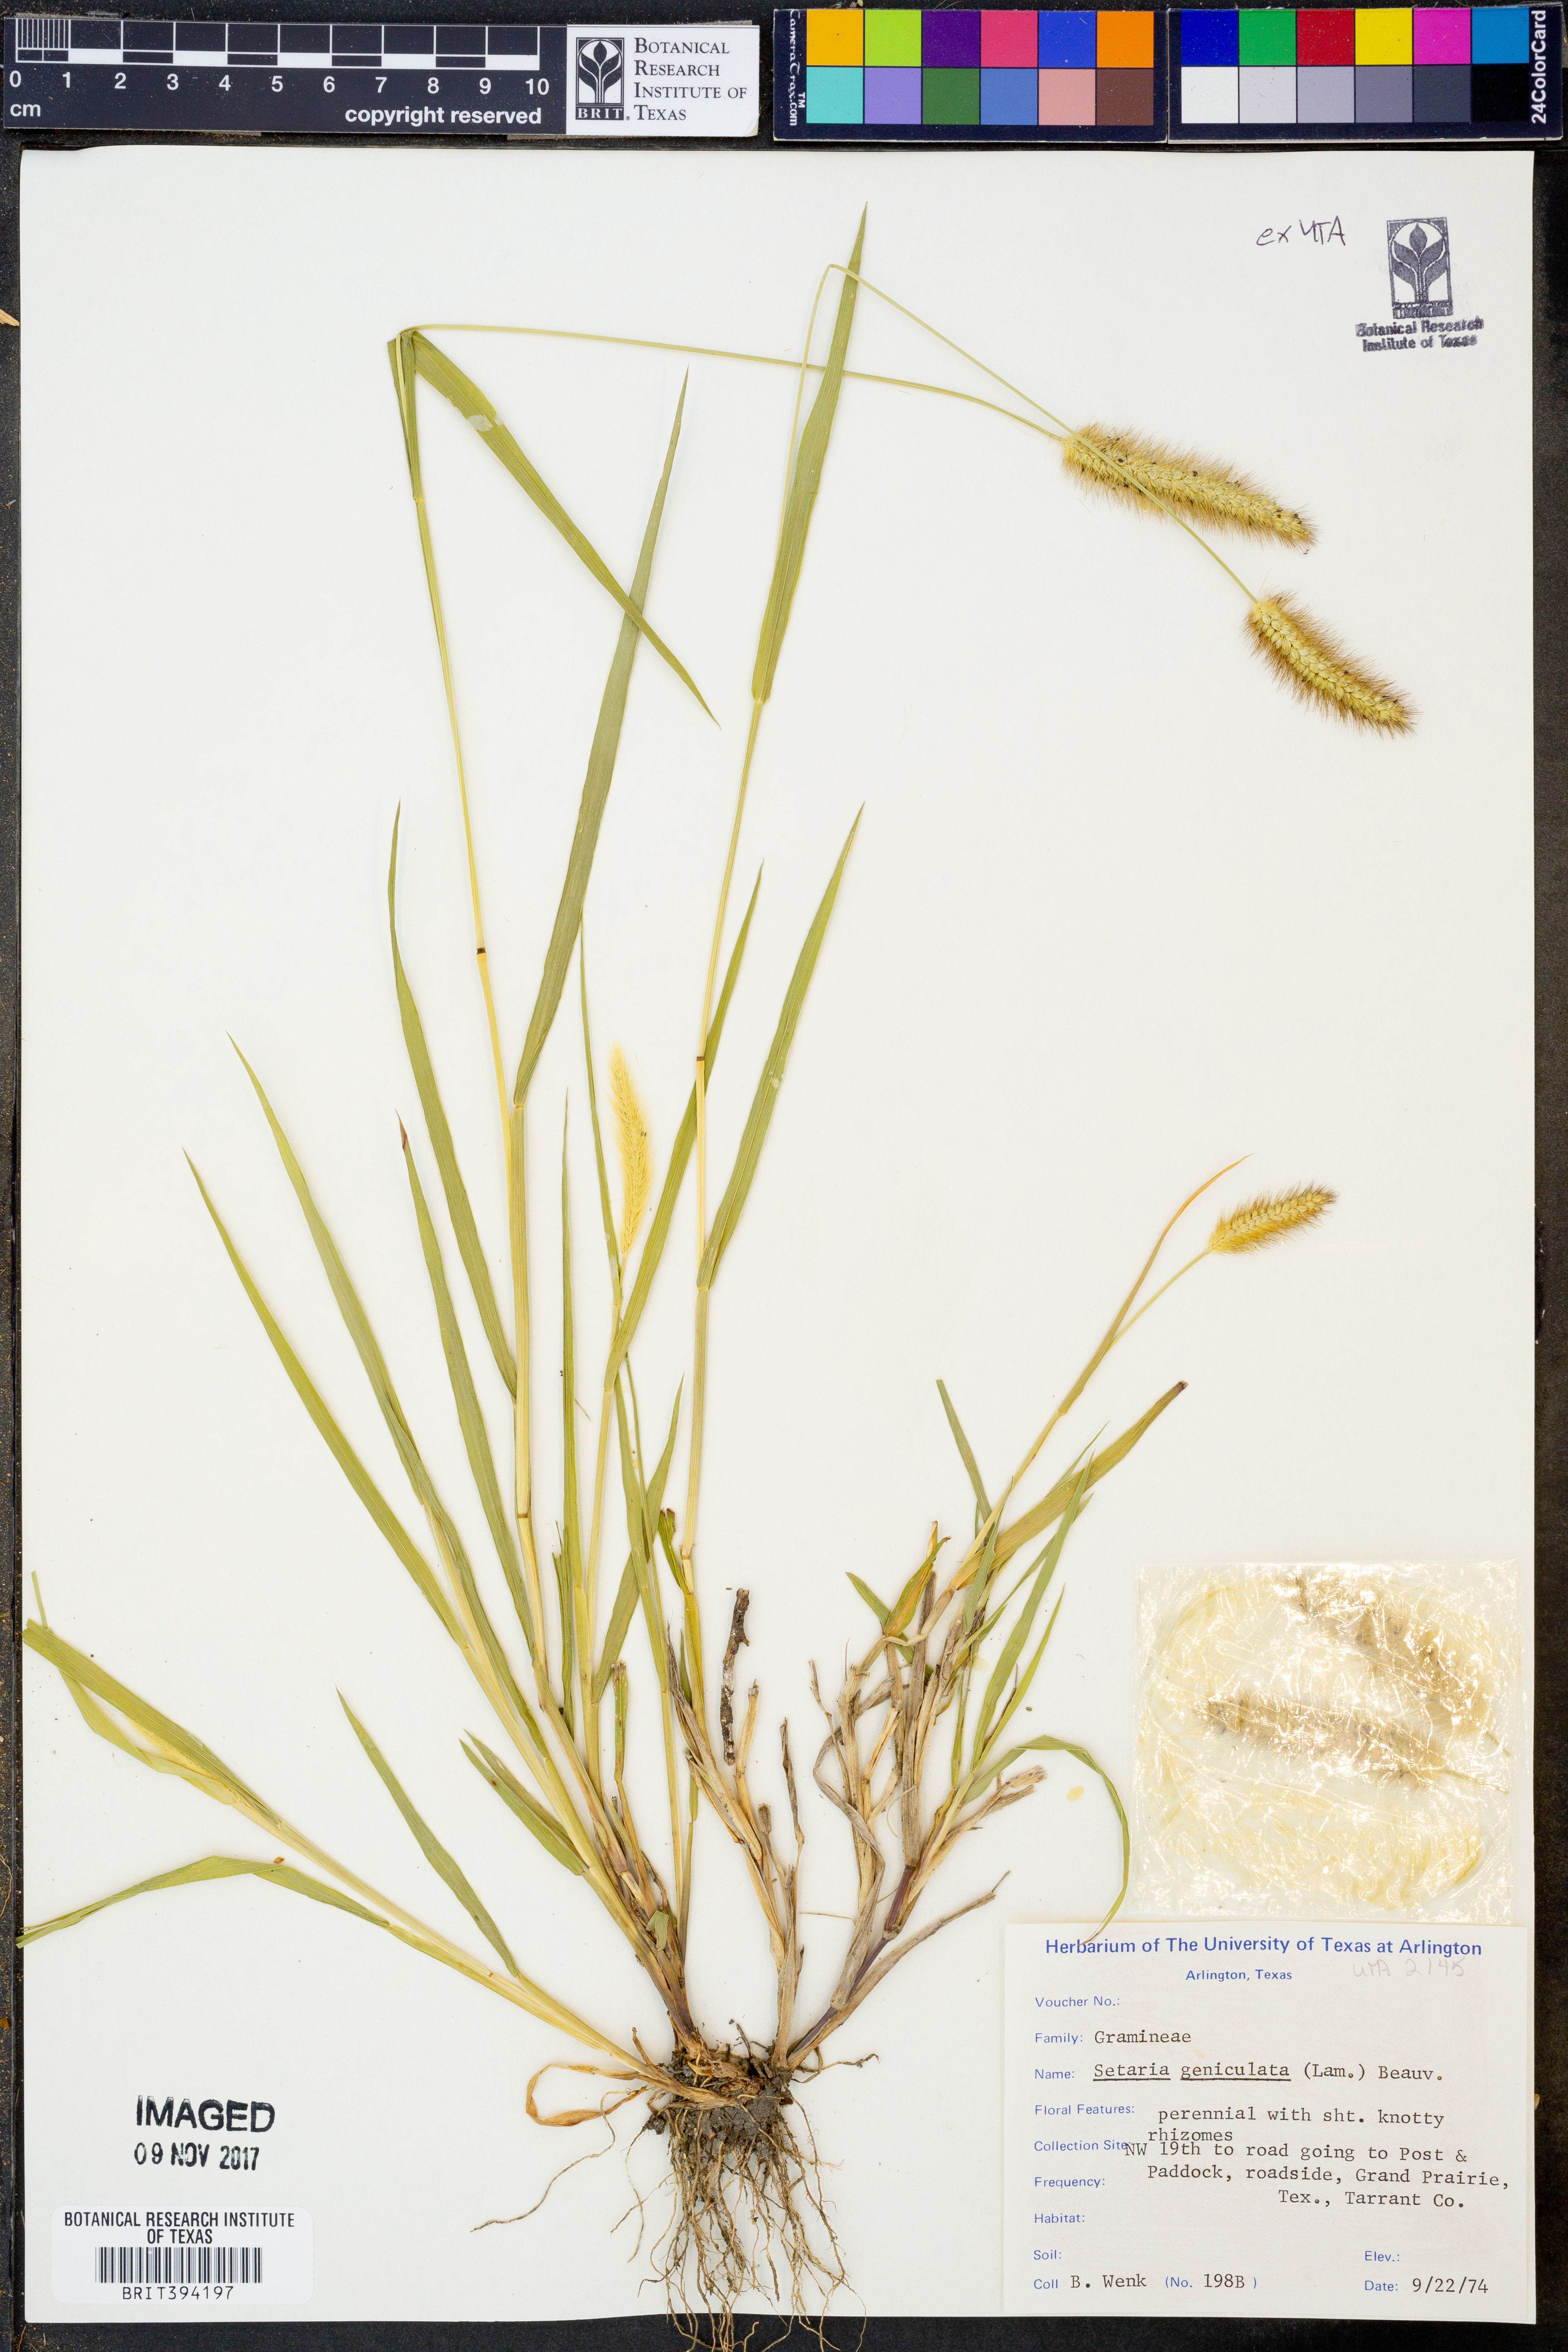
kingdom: Plantae
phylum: Tracheophyta
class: Liliopsida
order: Poales
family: Poaceae
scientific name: Poaceae
